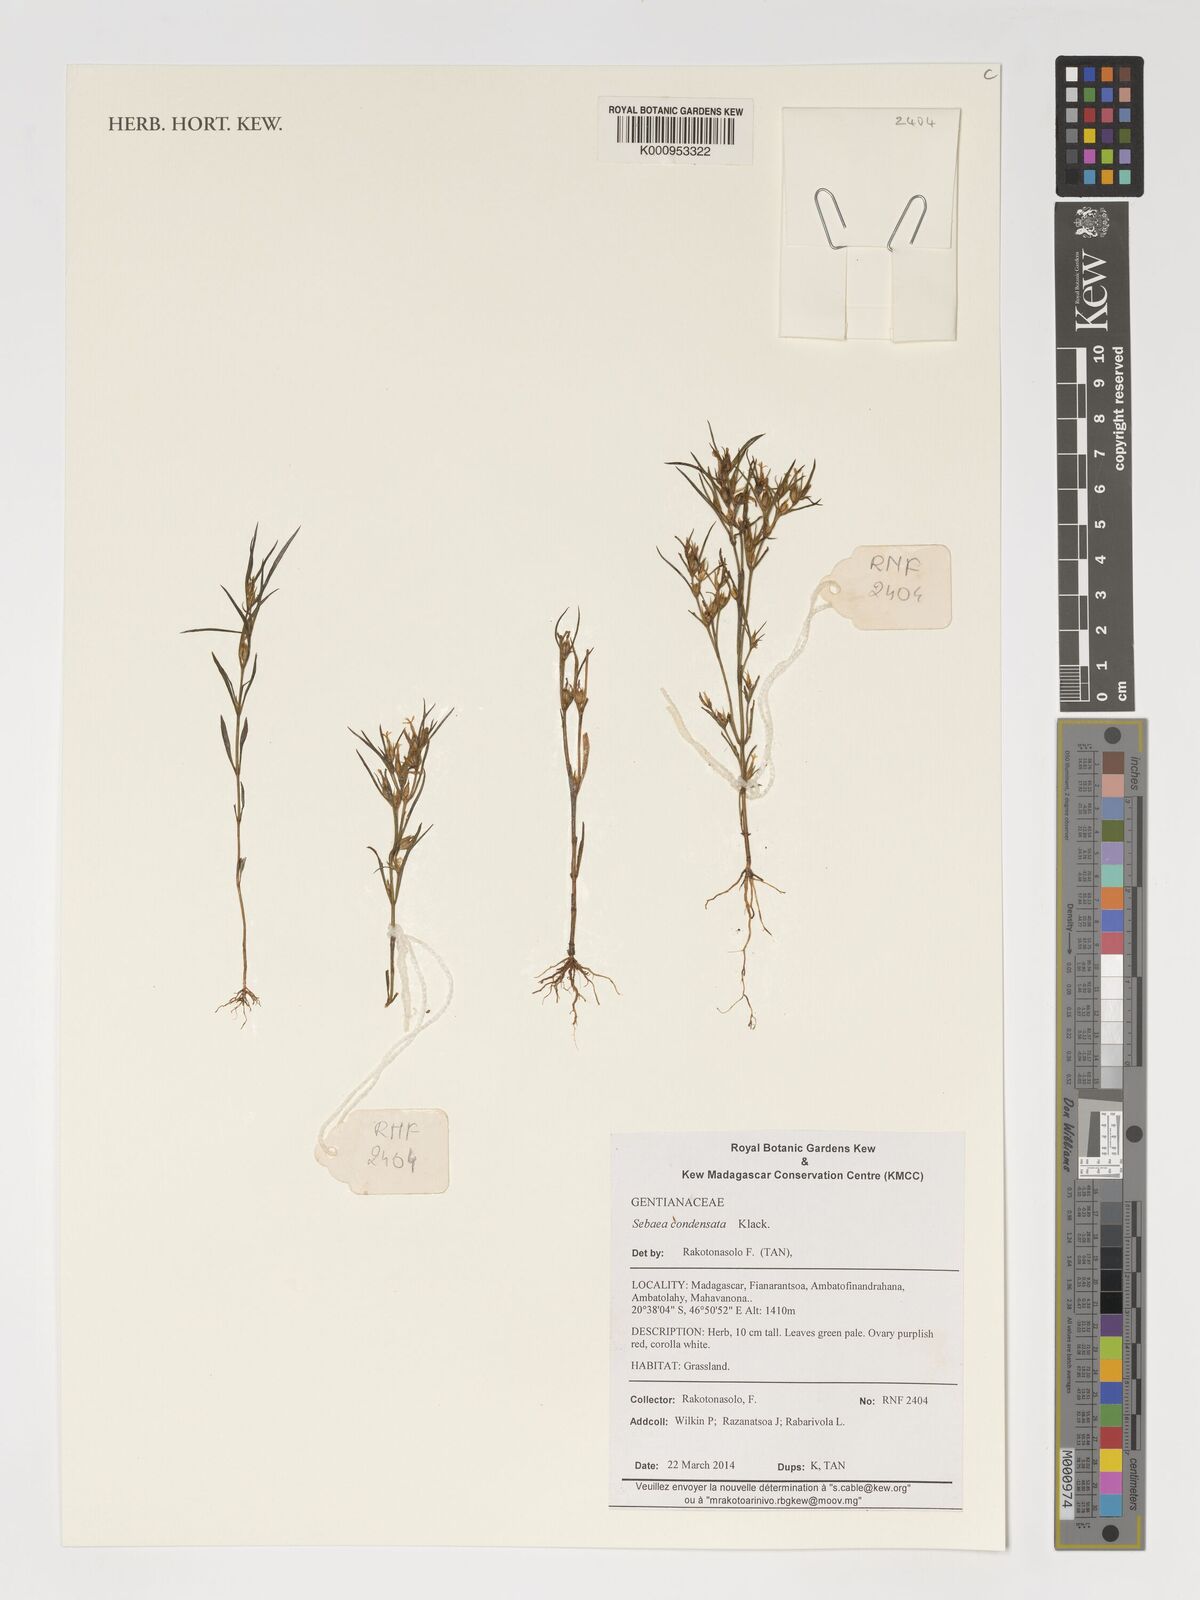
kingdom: Plantae
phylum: Tracheophyta
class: Magnoliopsida
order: Gentianales
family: Gentianaceae
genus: Klackenbergia
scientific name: Klackenbergia condensata
